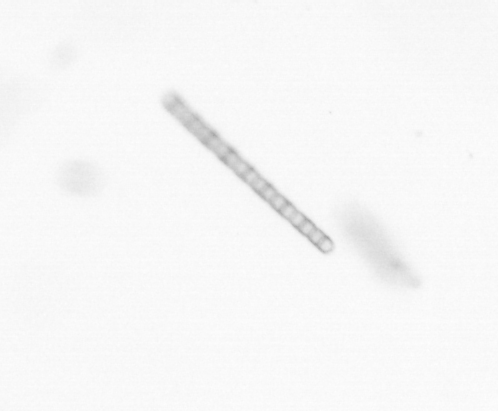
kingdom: Chromista
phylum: Ochrophyta
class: Bacillariophyceae
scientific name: Bacillariophyceae
